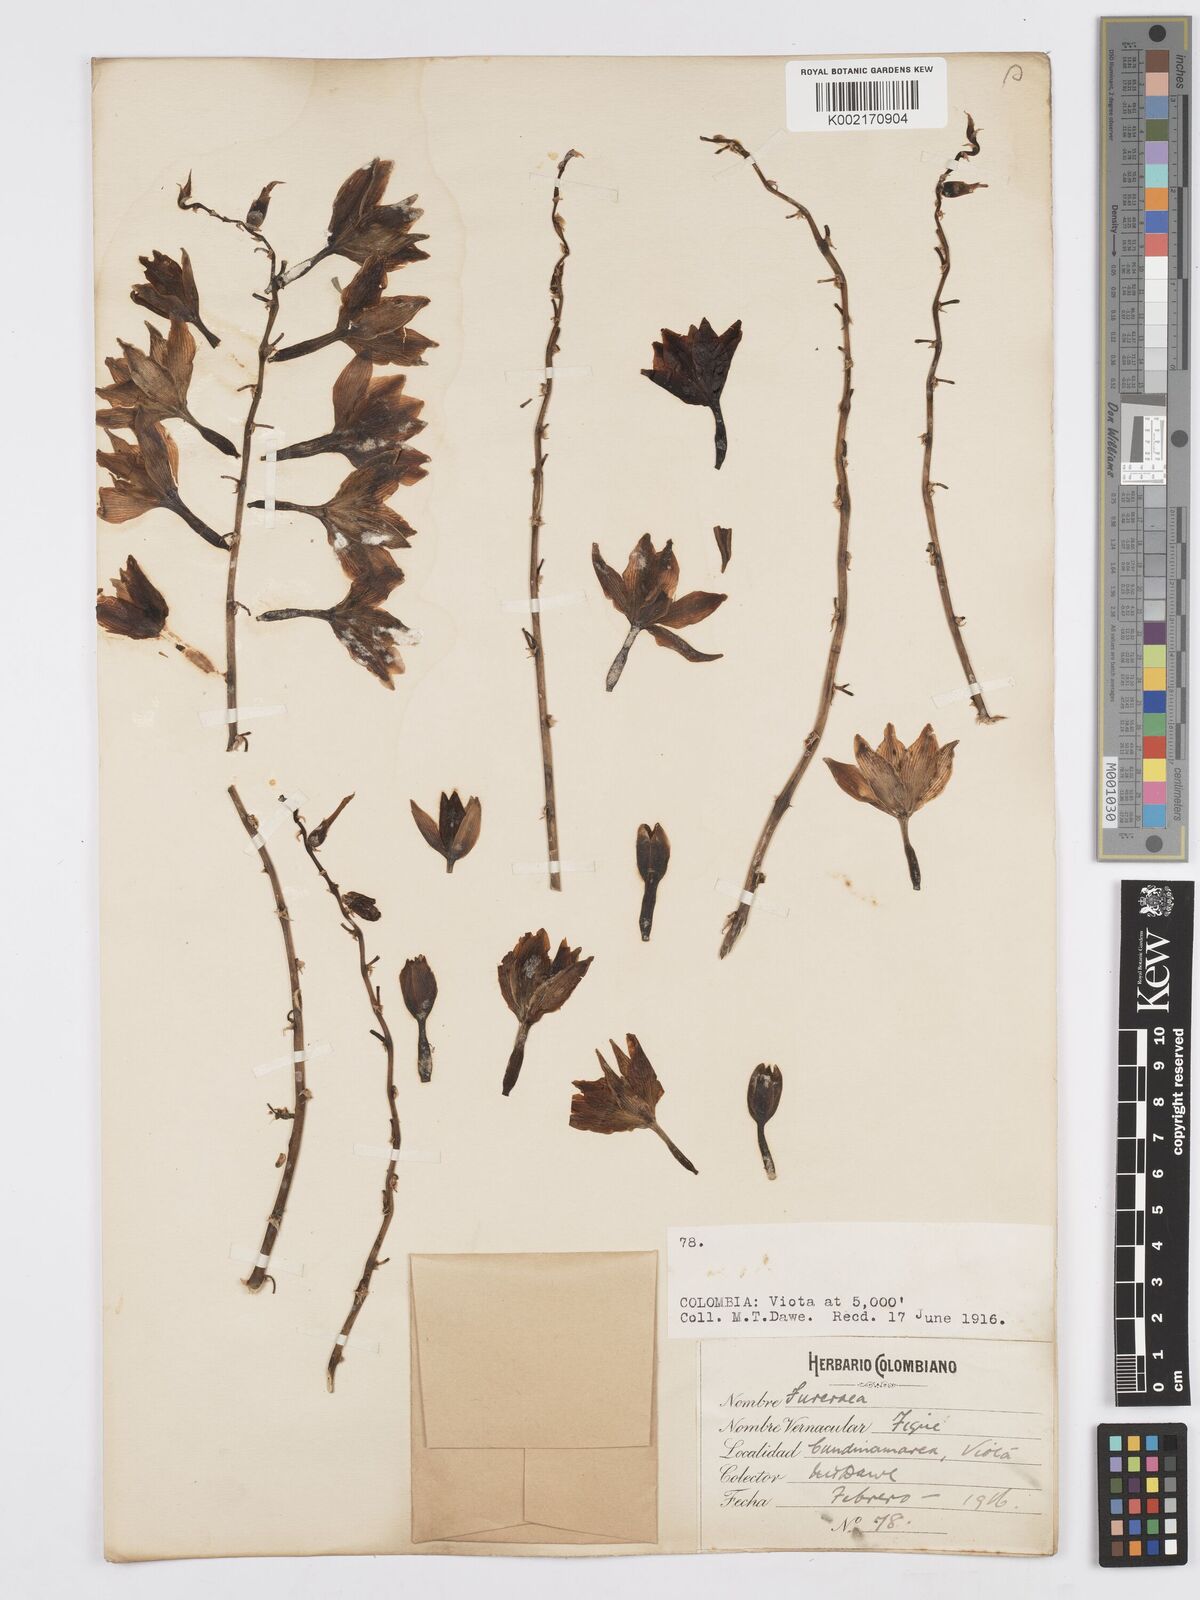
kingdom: Plantae
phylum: Tracheophyta
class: Liliopsida
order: Asparagales
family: Asparagaceae
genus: Furcraea
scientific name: Furcraea hexapetala
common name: Cuban-hemp
